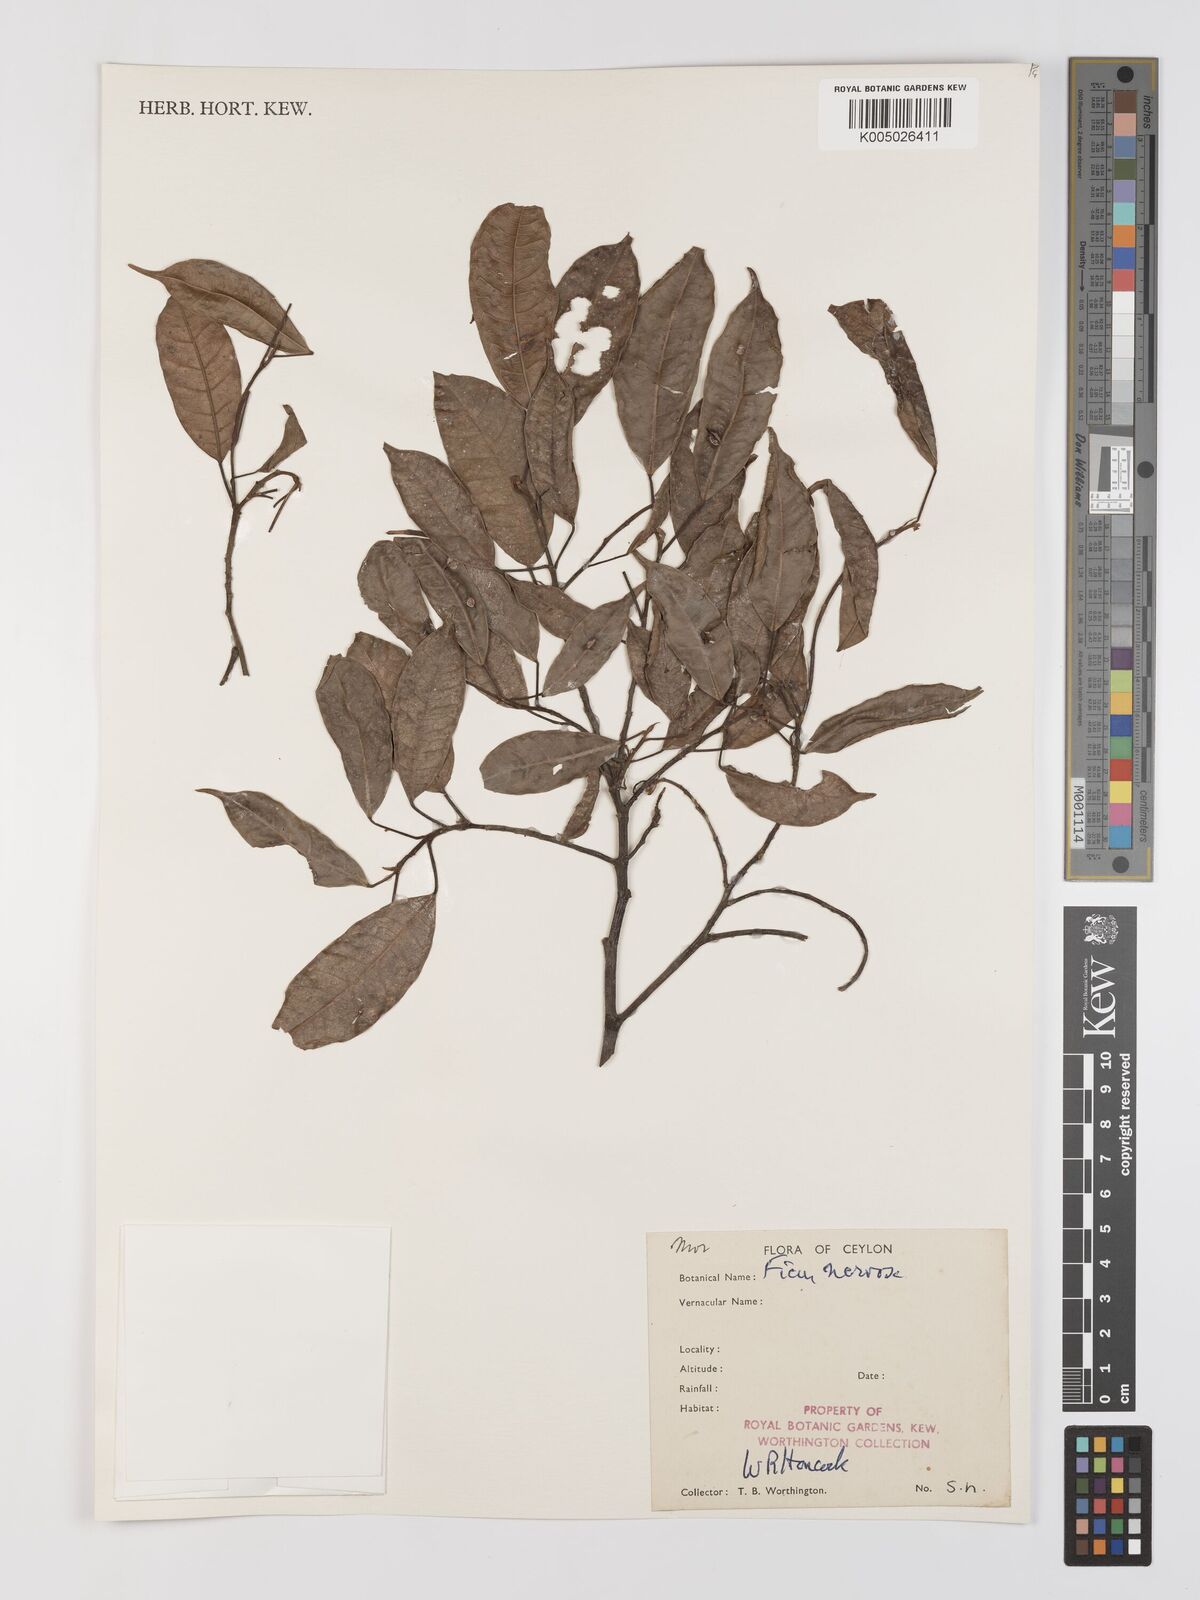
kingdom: Plantae
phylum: Tracheophyta
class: Magnoliopsida
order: Rosales
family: Moraceae
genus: Ficus
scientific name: Ficus nervosa
